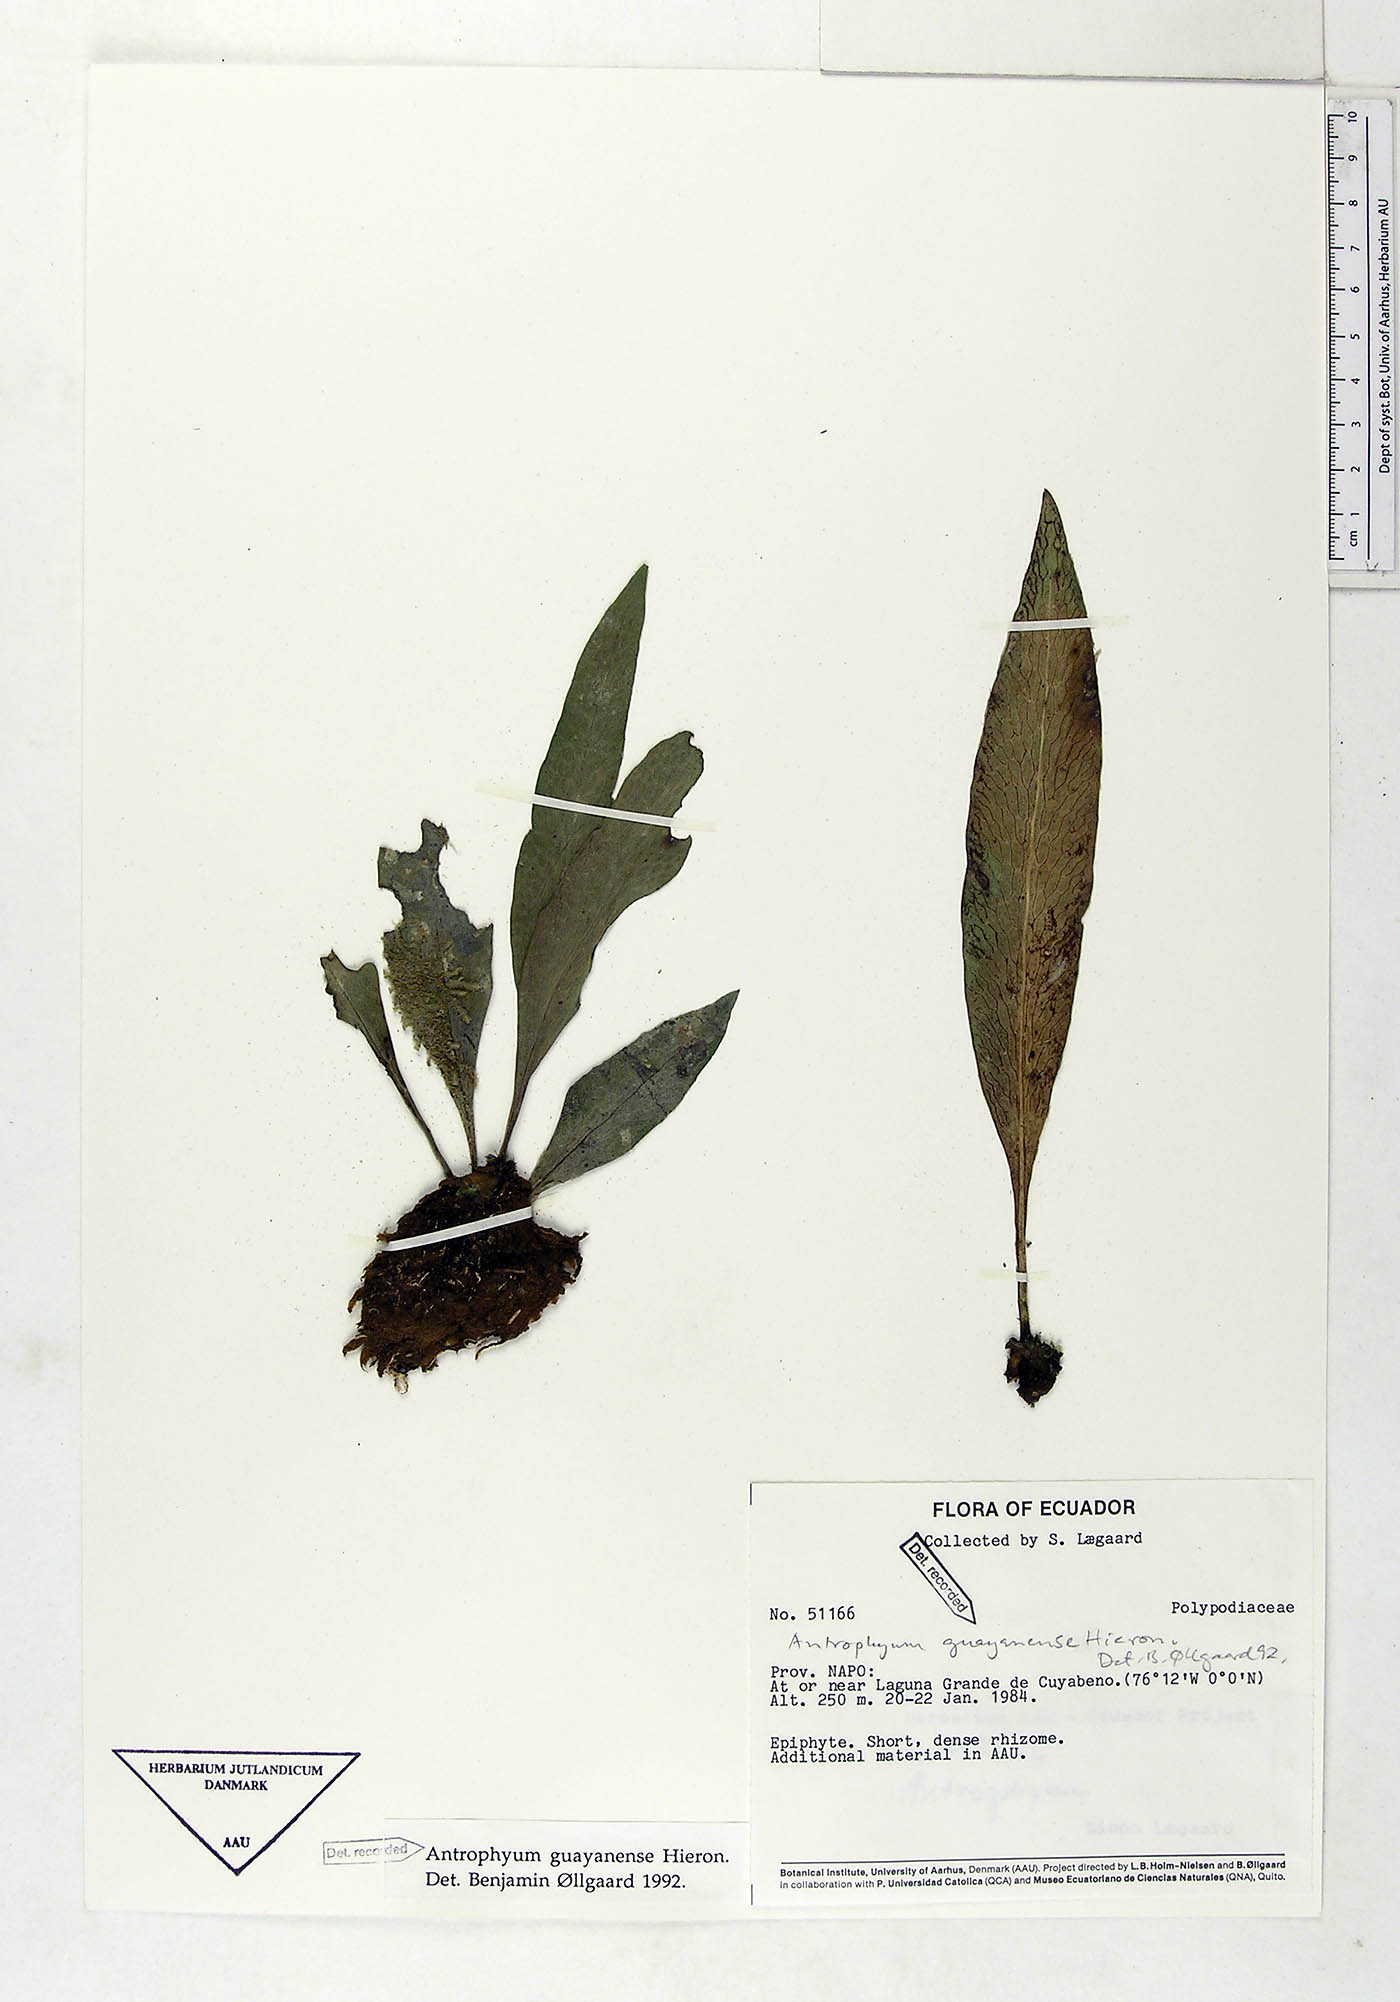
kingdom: Plantae
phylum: Tracheophyta
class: Polypodiopsida
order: Polypodiales
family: Pteridaceae
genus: Polytaenium
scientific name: Polytaenium guayanense
